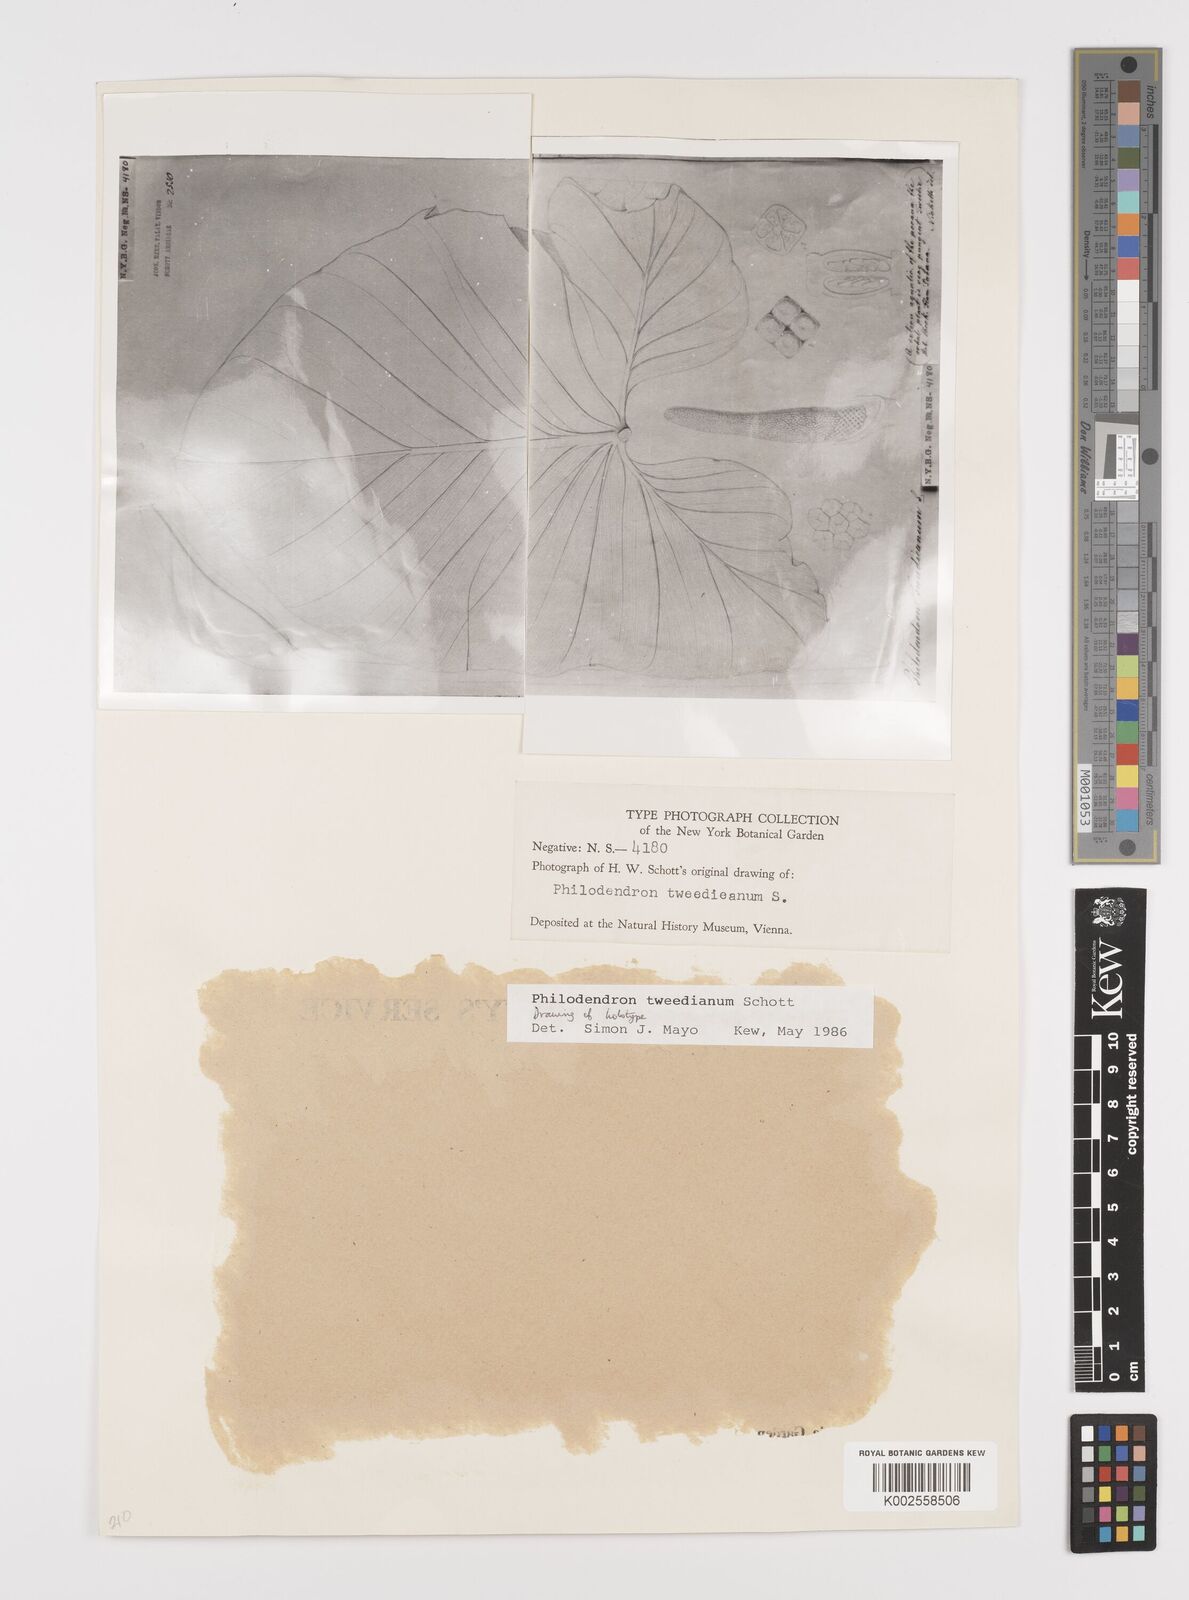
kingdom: Plantae
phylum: Tracheophyta
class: Liliopsida
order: Alismatales
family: Araceae
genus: Thaumatophyllum
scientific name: Thaumatophyllum tweedieanum
